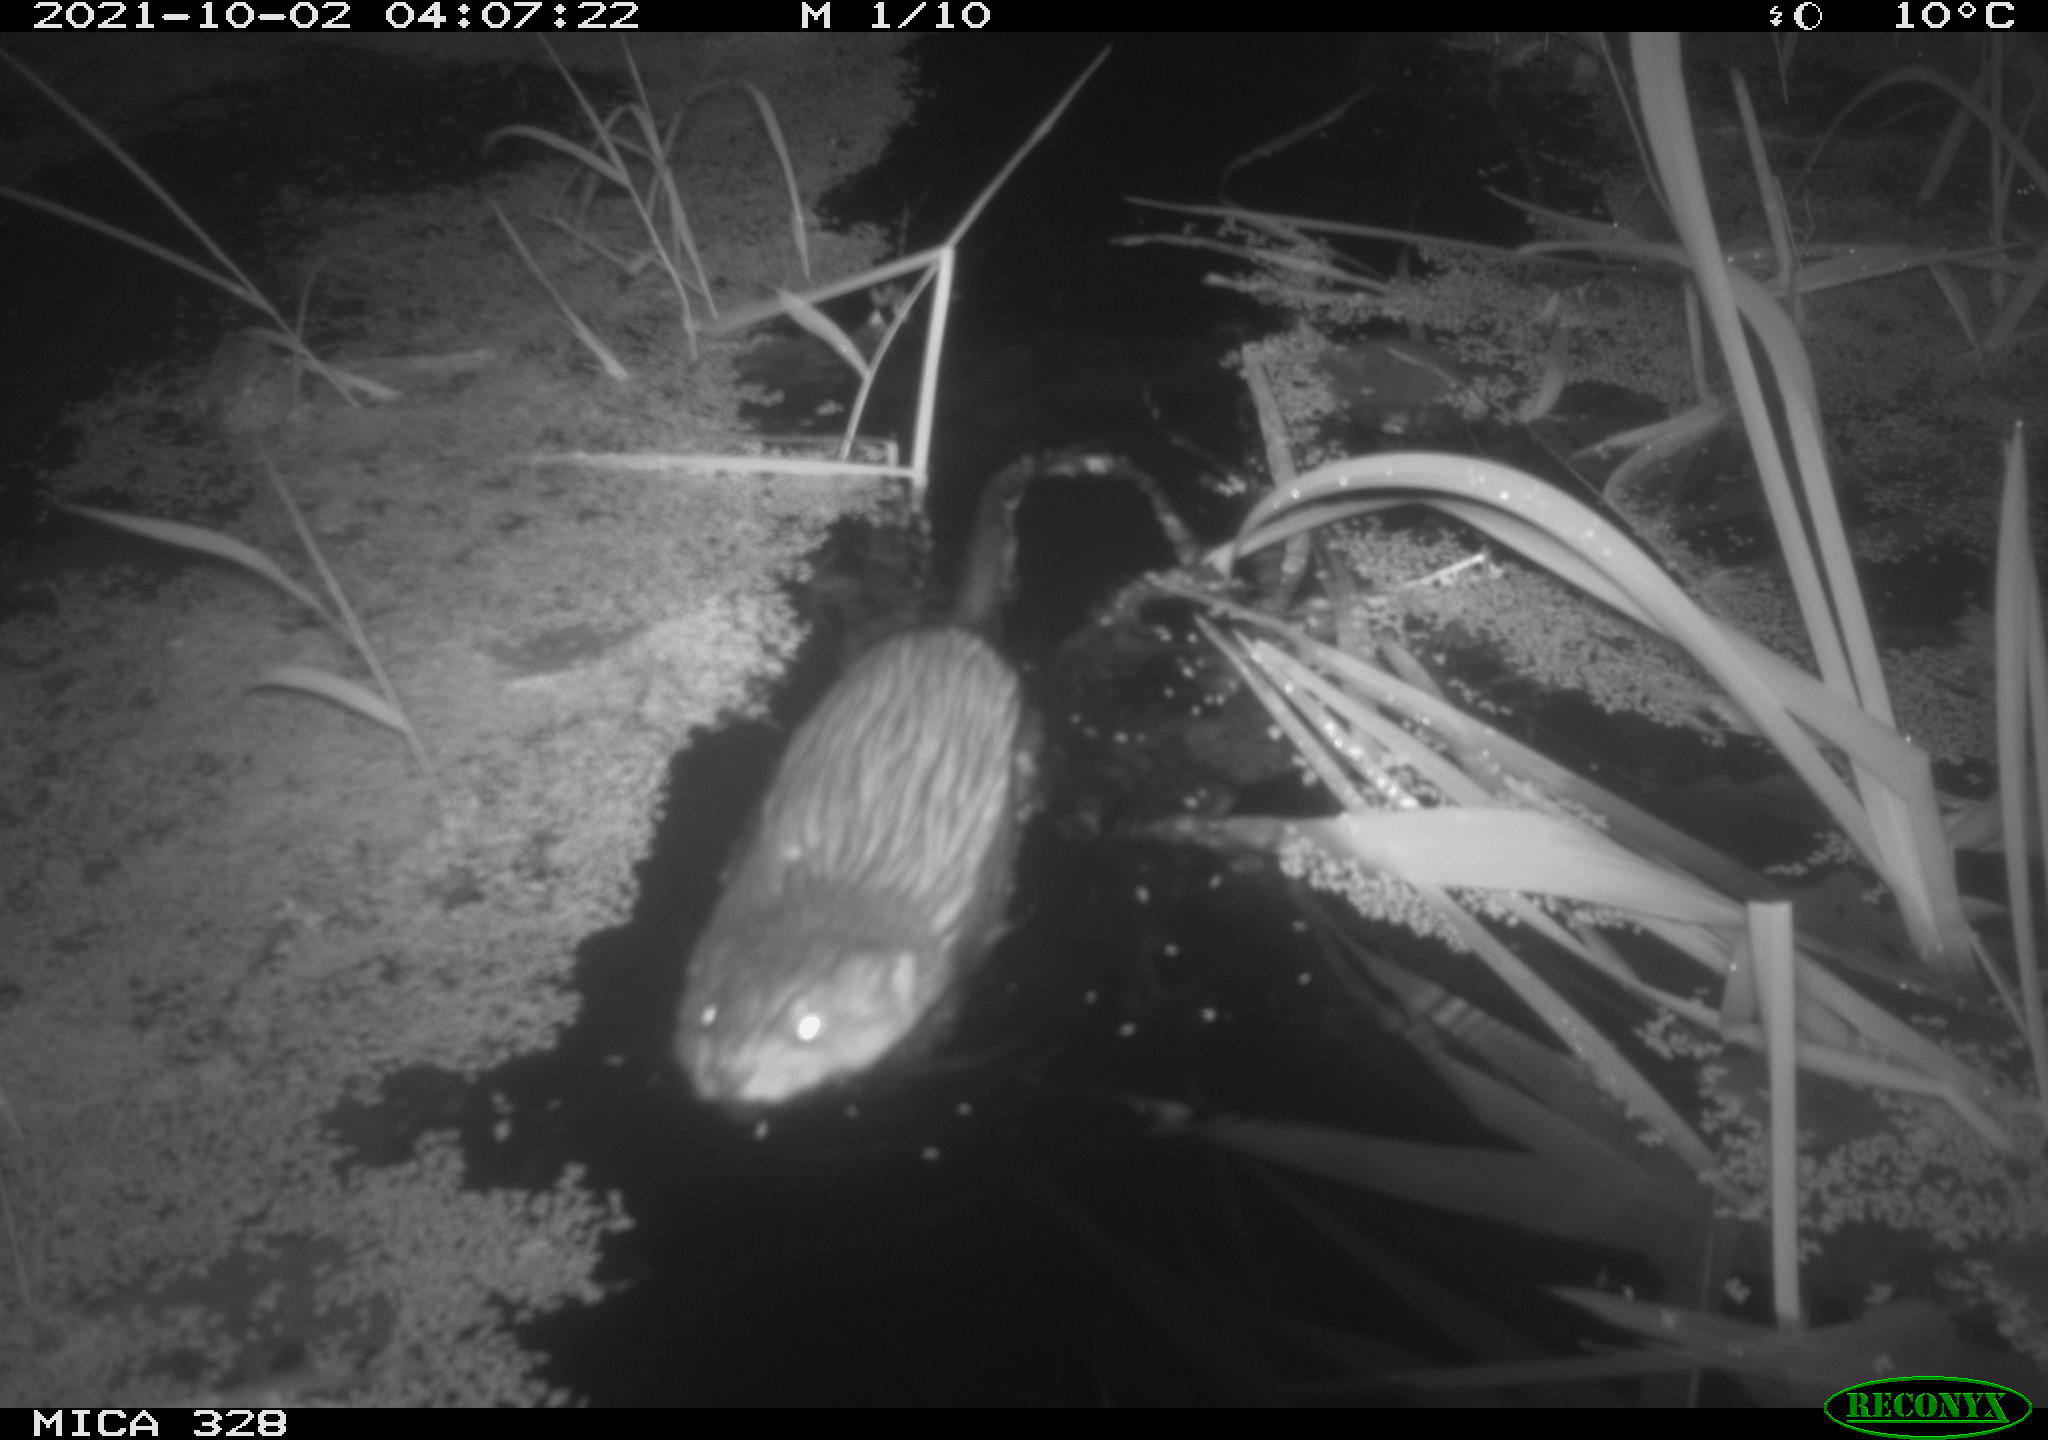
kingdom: Animalia
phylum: Chordata
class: Mammalia
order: Rodentia
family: Cricetidae
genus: Ondatra
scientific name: Ondatra zibethicus
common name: Muskrat
